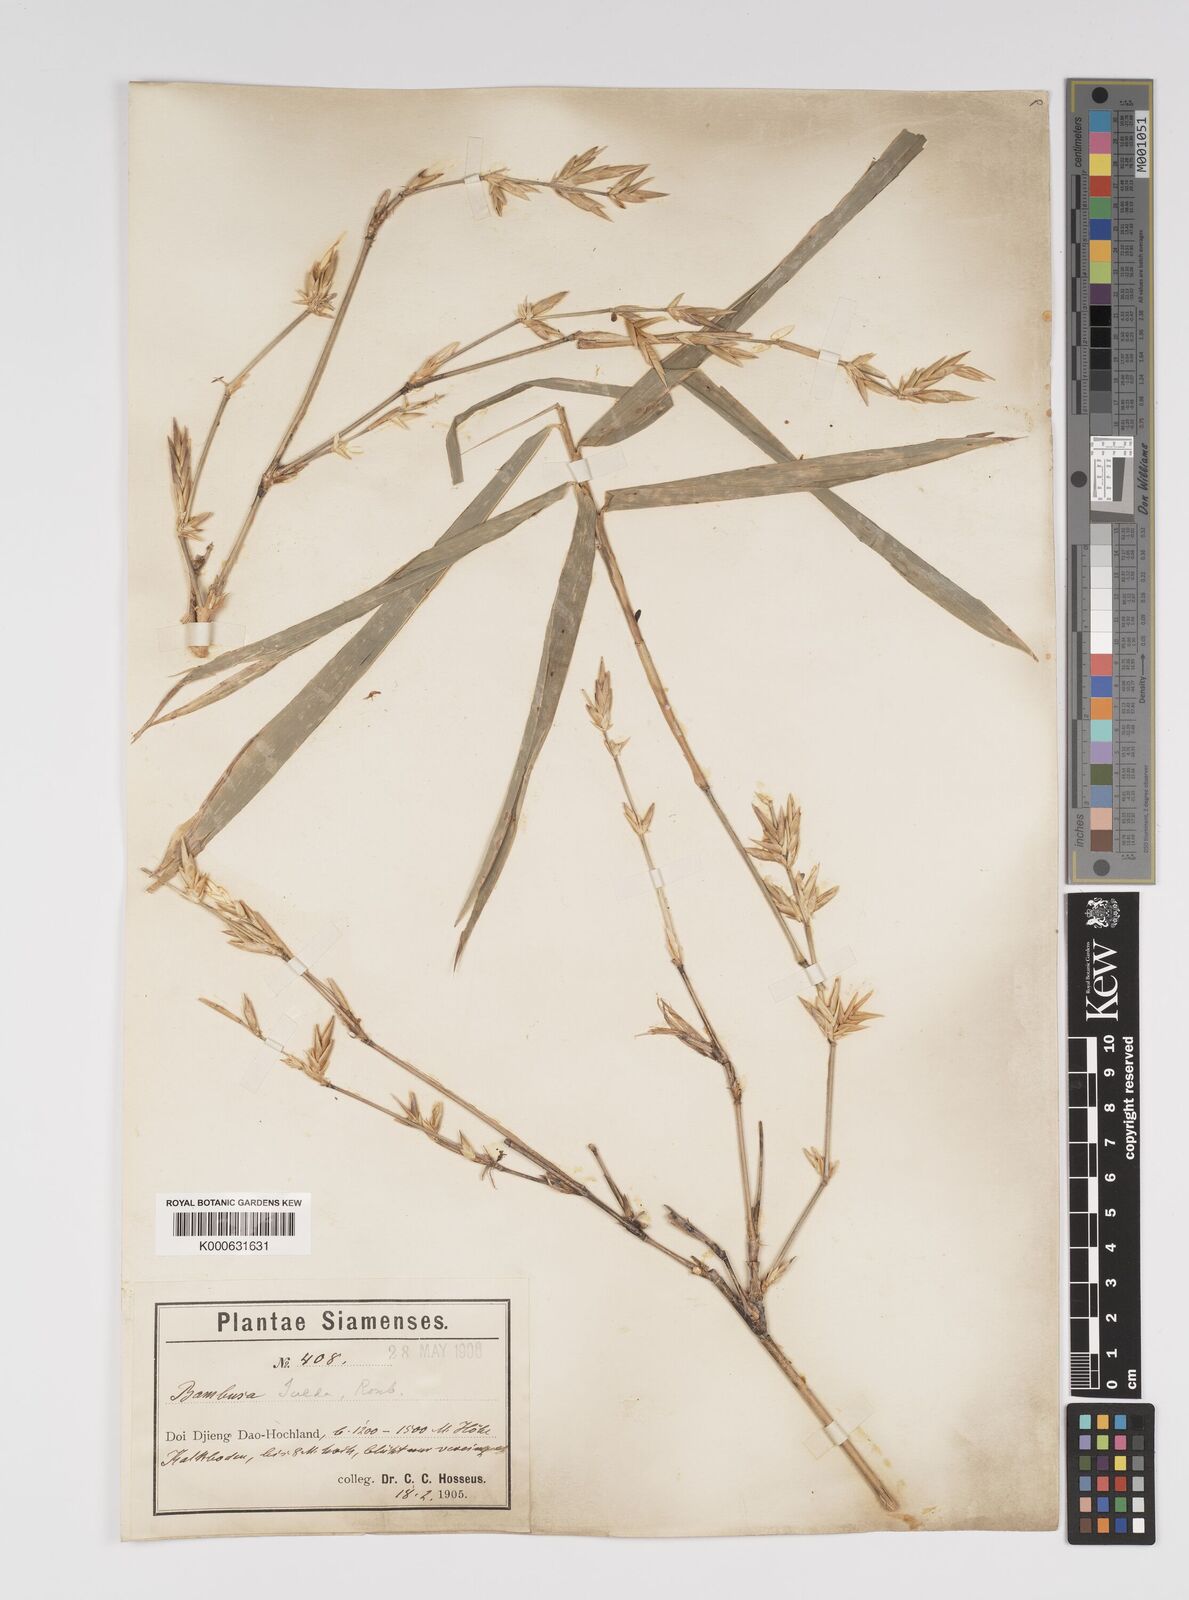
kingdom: Plantae
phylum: Tracheophyta
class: Liliopsida
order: Poales
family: Poaceae
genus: Bambusa
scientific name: Bambusa tulda
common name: Bengal bamboo
